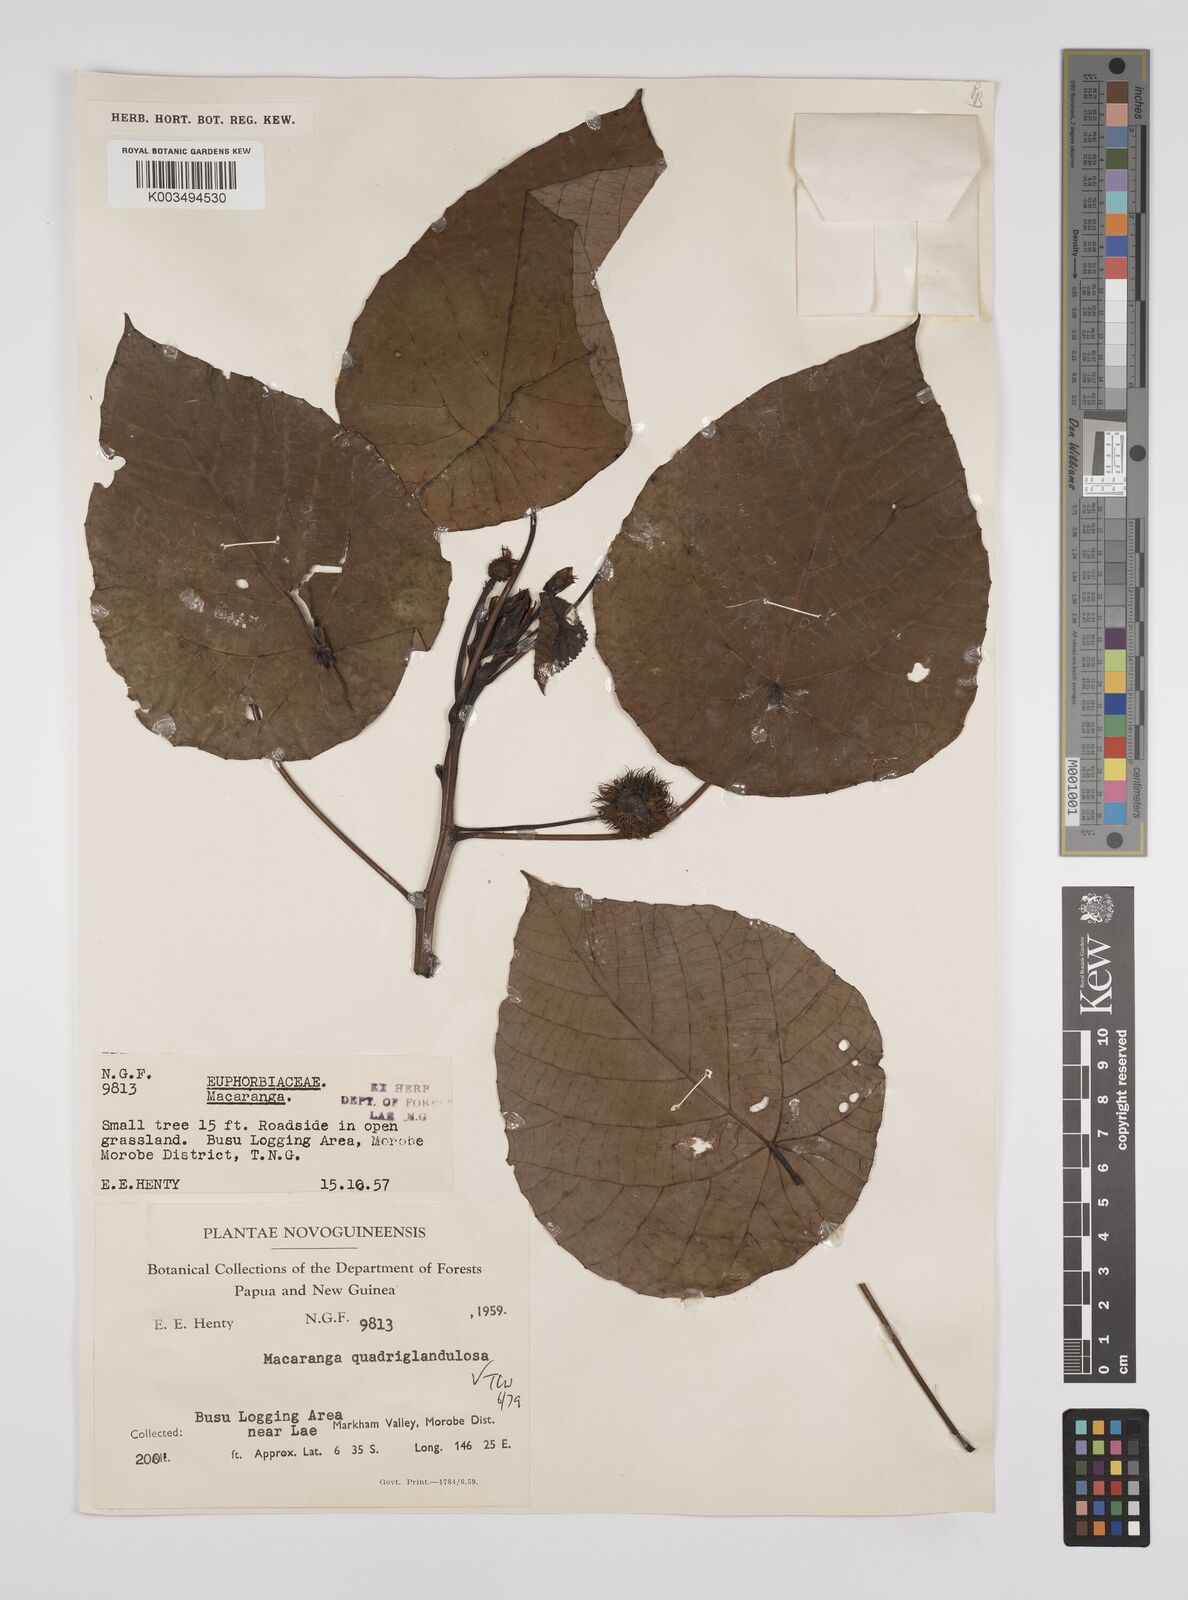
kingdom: Plantae
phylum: Tracheophyta
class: Magnoliopsida
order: Malpighiales
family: Euphorbiaceae
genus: Macaranga
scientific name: Macaranga quadriglandulosa
